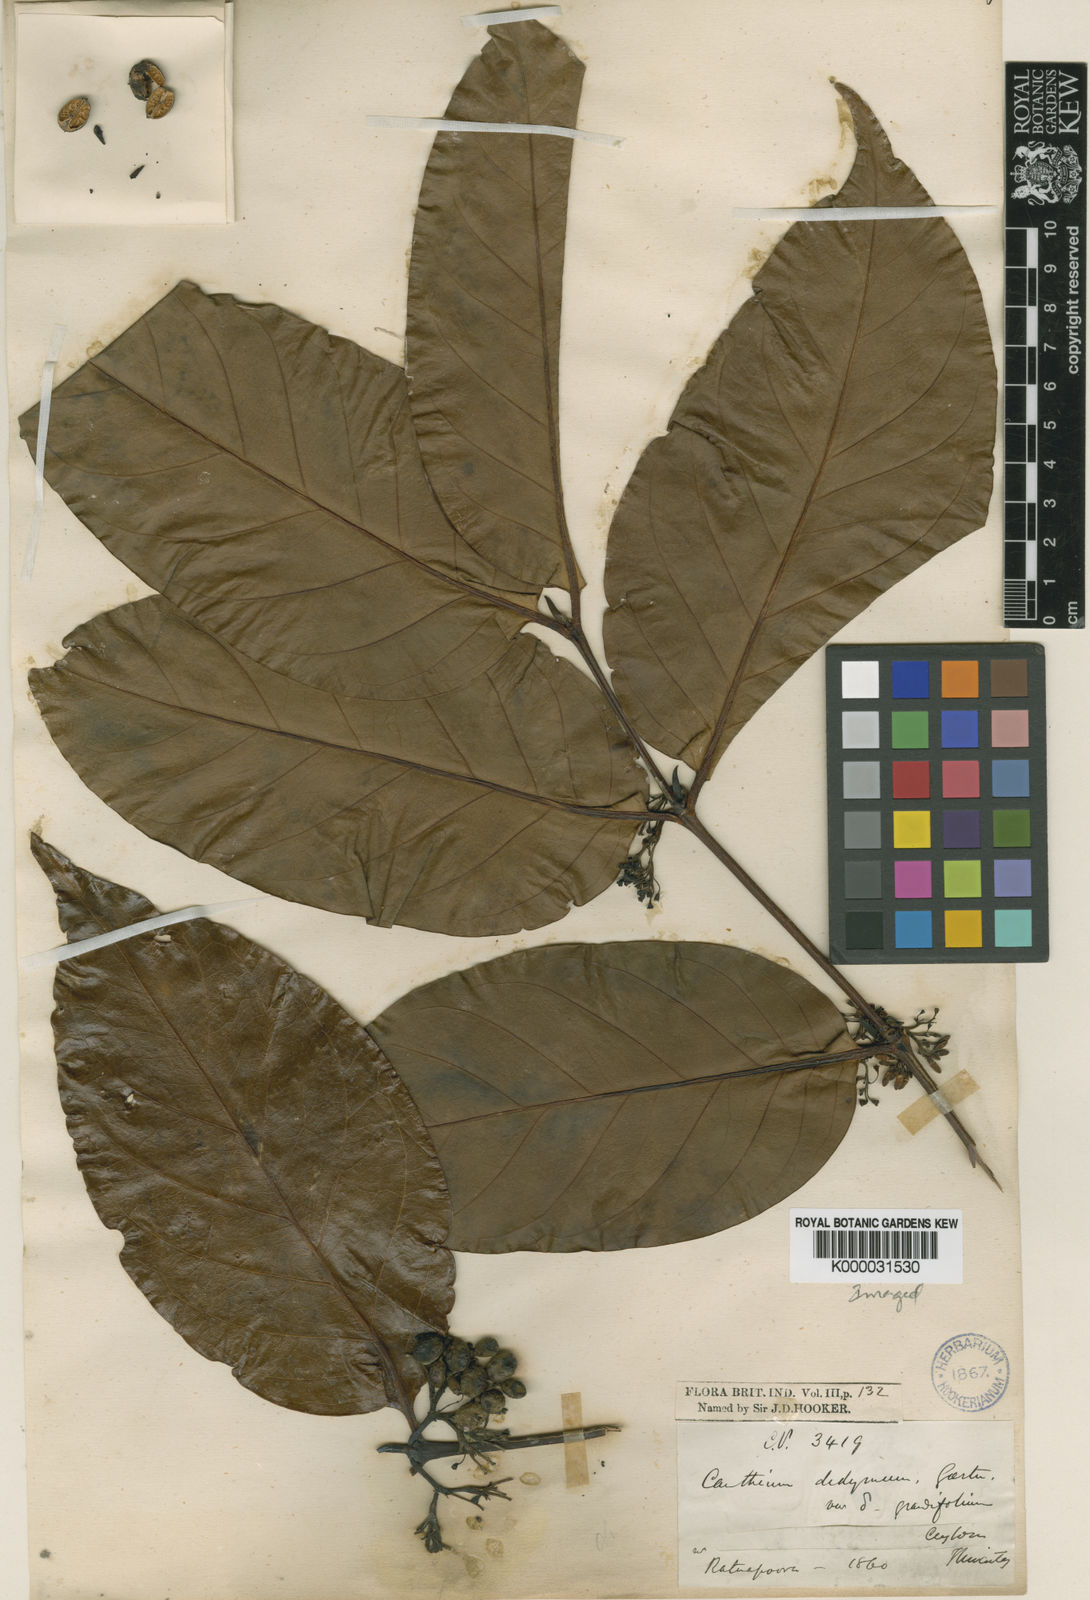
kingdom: Plantae
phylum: Tracheophyta
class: Magnoliopsida
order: Gentianales
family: Rubiaceae
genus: Psydrax
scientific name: Psydrax grandifolius
